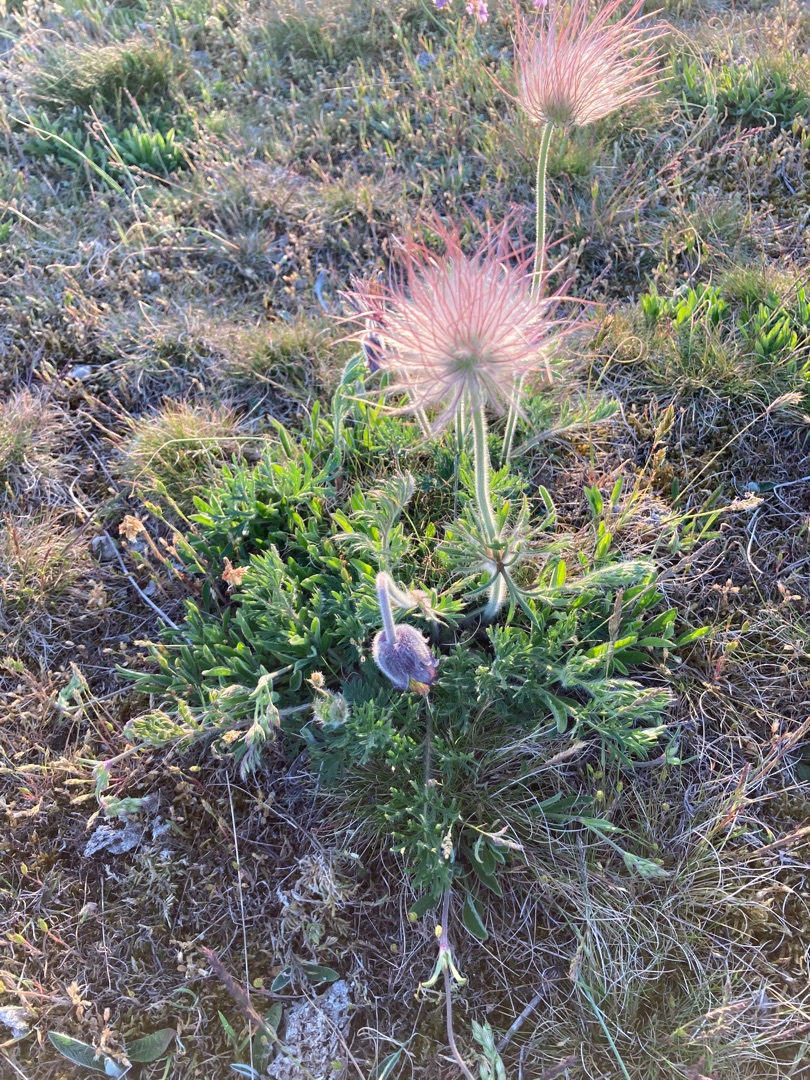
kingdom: Plantae
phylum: Tracheophyta
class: Magnoliopsida
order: Ranunculales
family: Ranunculaceae
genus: Pulsatilla
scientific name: Pulsatilla pratensis
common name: Nikkende kobjælde
